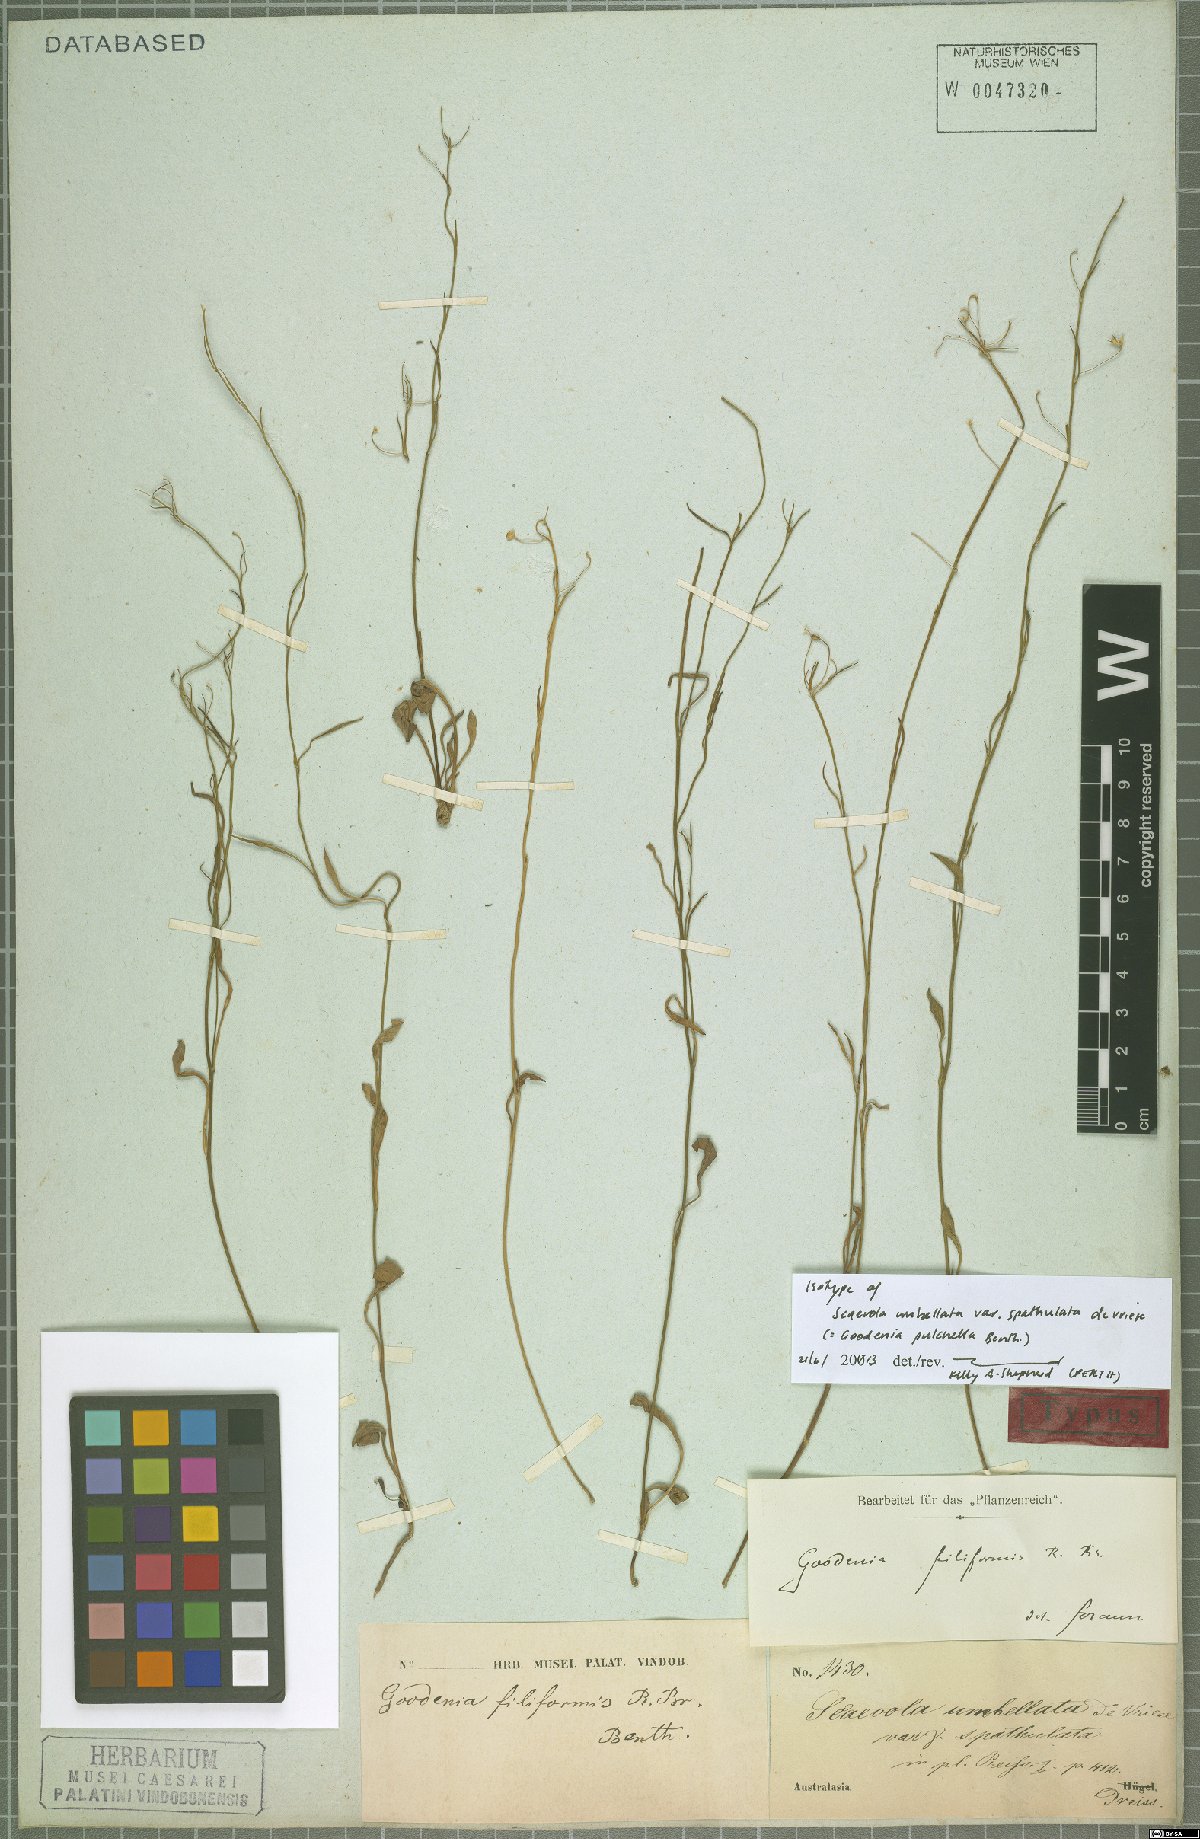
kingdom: Plantae
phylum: Tracheophyta
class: Magnoliopsida
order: Asterales
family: Goodeniaceae
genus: Goodenia
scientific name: Goodenia pulchella
